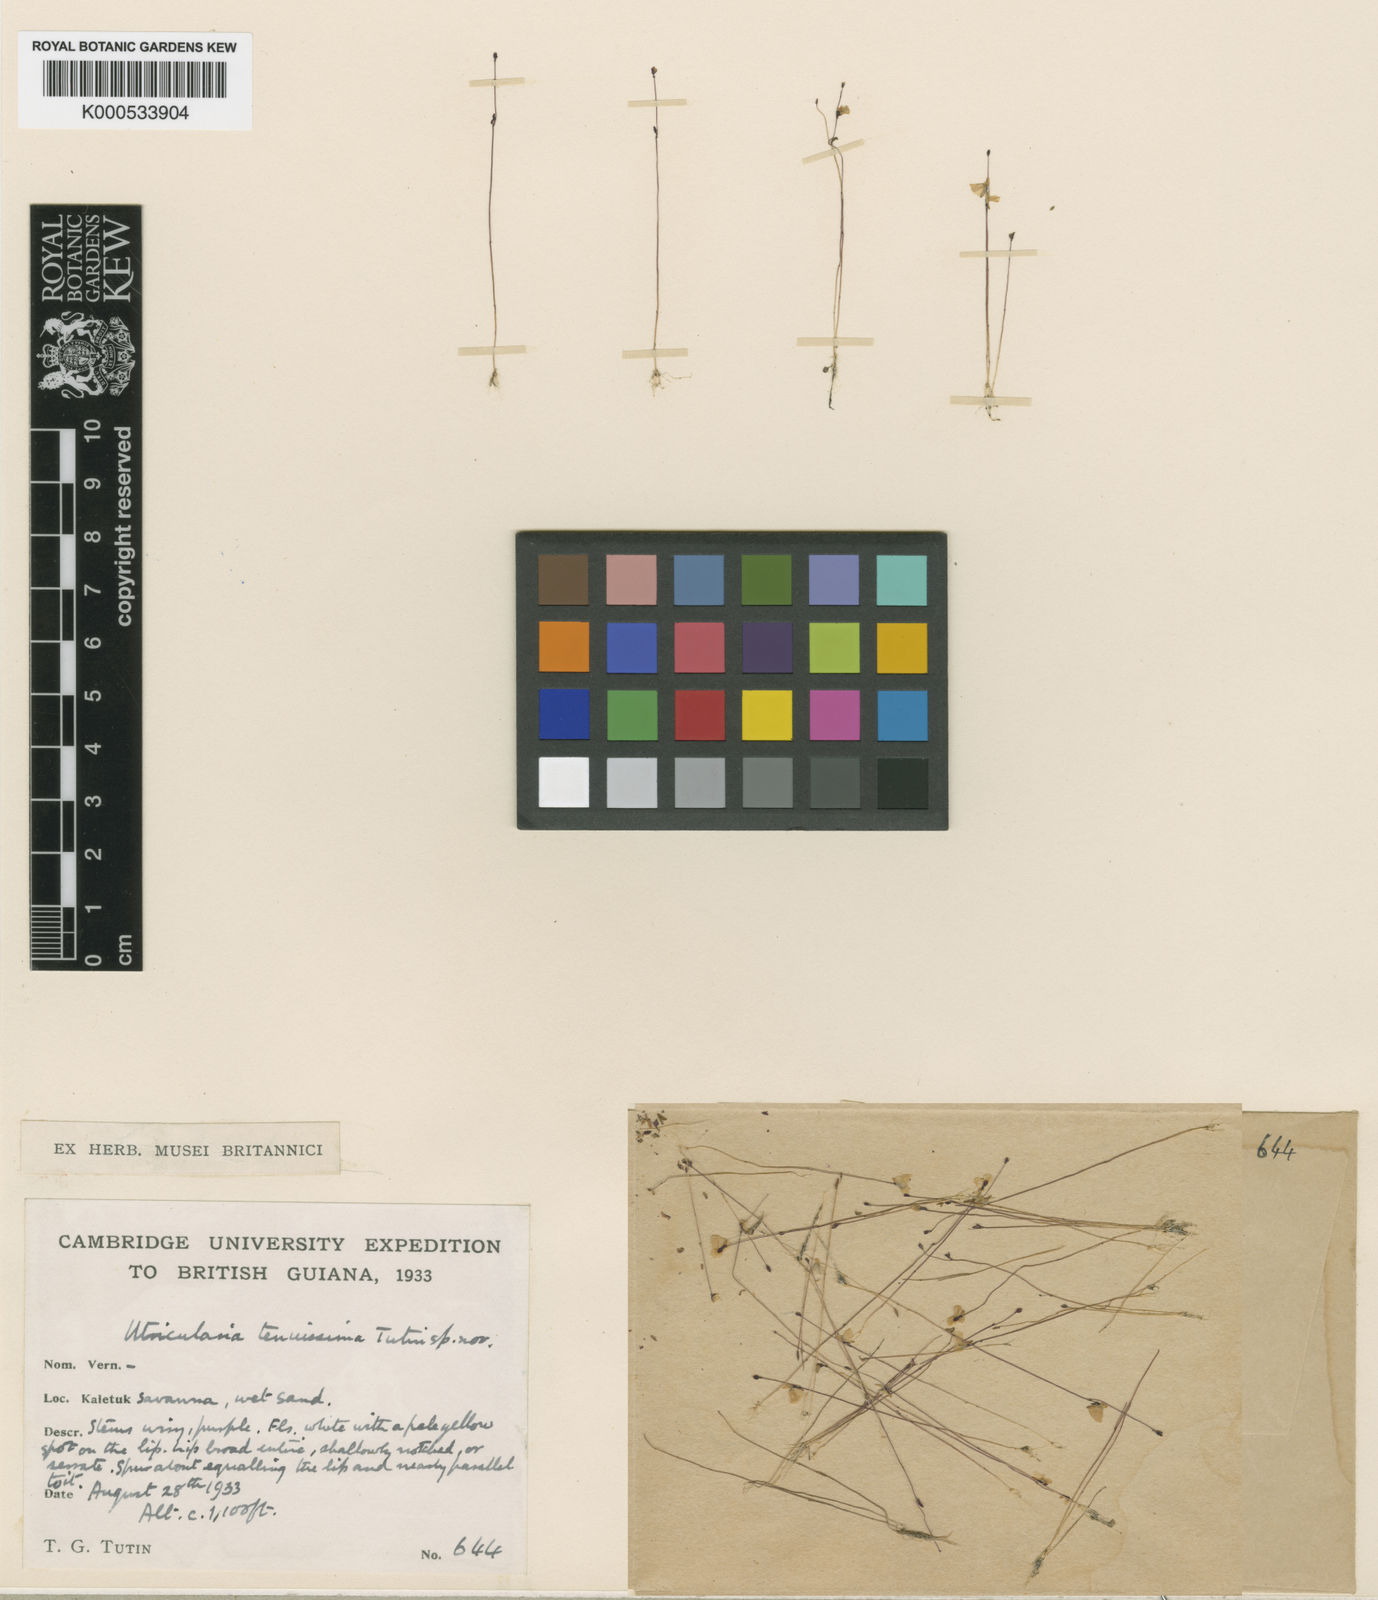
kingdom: Plantae
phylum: Tracheophyta
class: Magnoliopsida
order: Lamiales
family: Lentibulariaceae
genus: Utricularia
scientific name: Utricularia tenuissima
